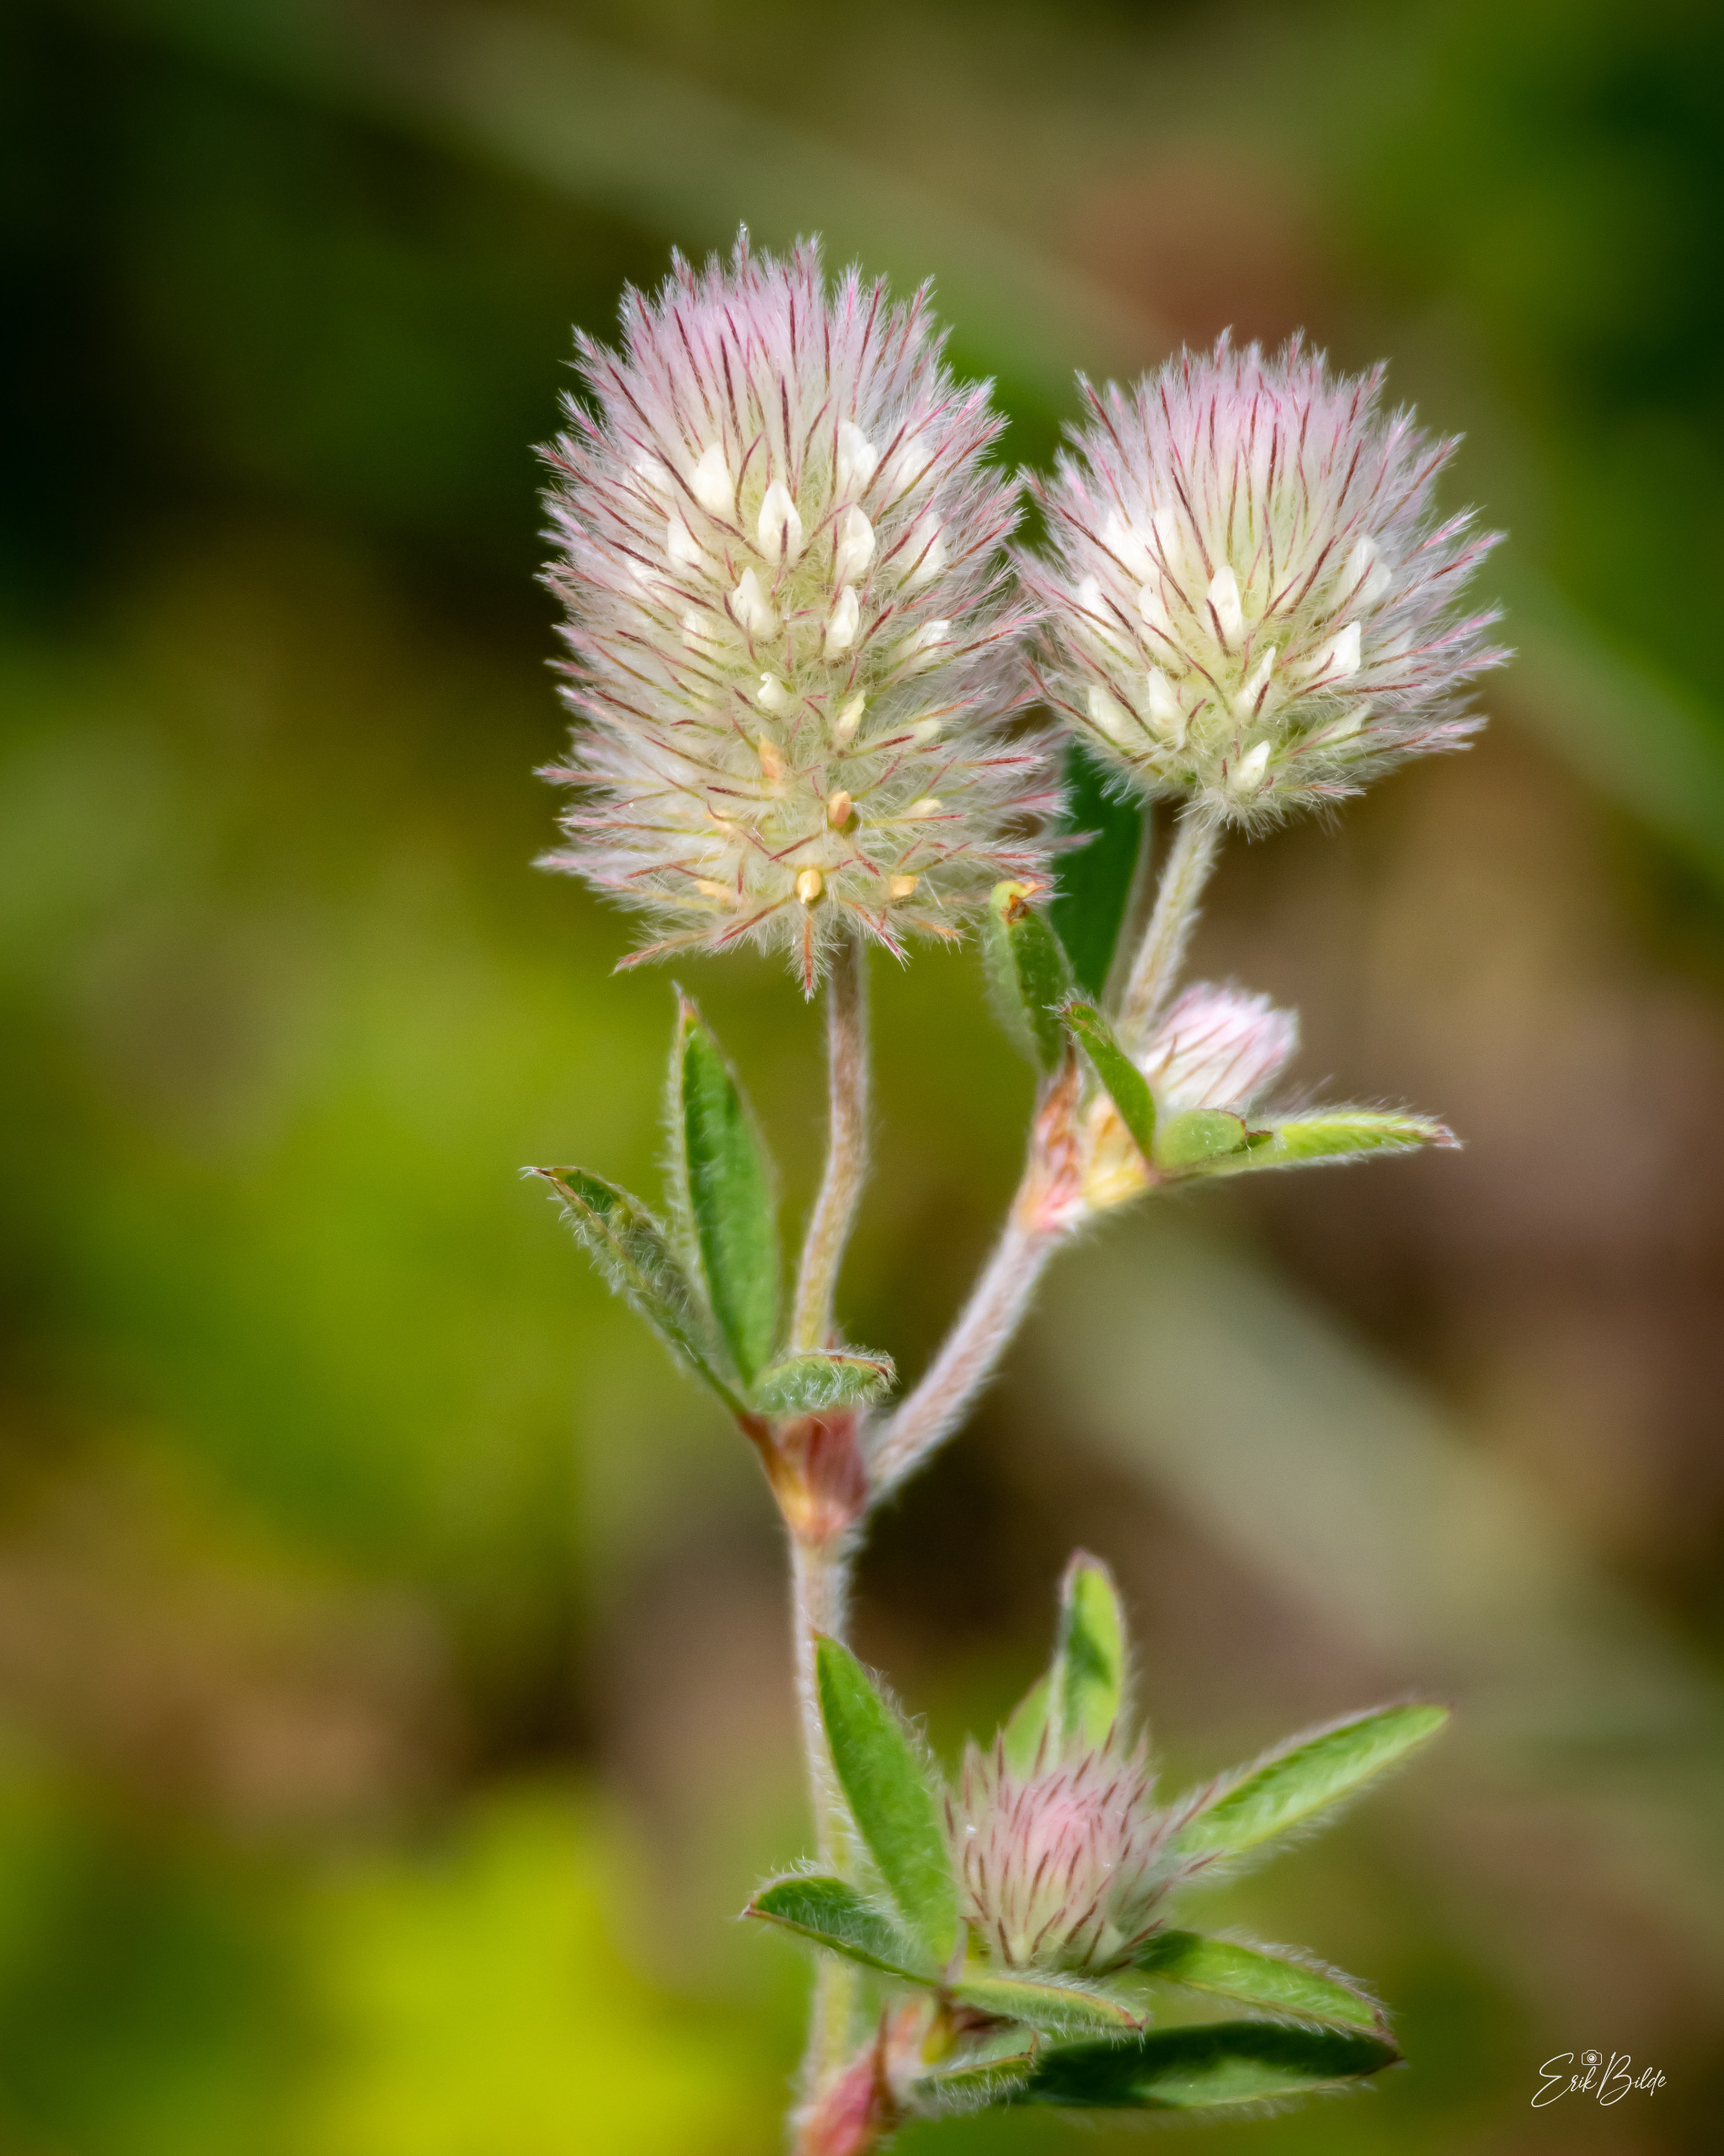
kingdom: Plantae
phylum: Tracheophyta
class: Magnoliopsida
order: Fabales
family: Fabaceae
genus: Trifolium
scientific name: Trifolium arvense
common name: Hare-kløver
